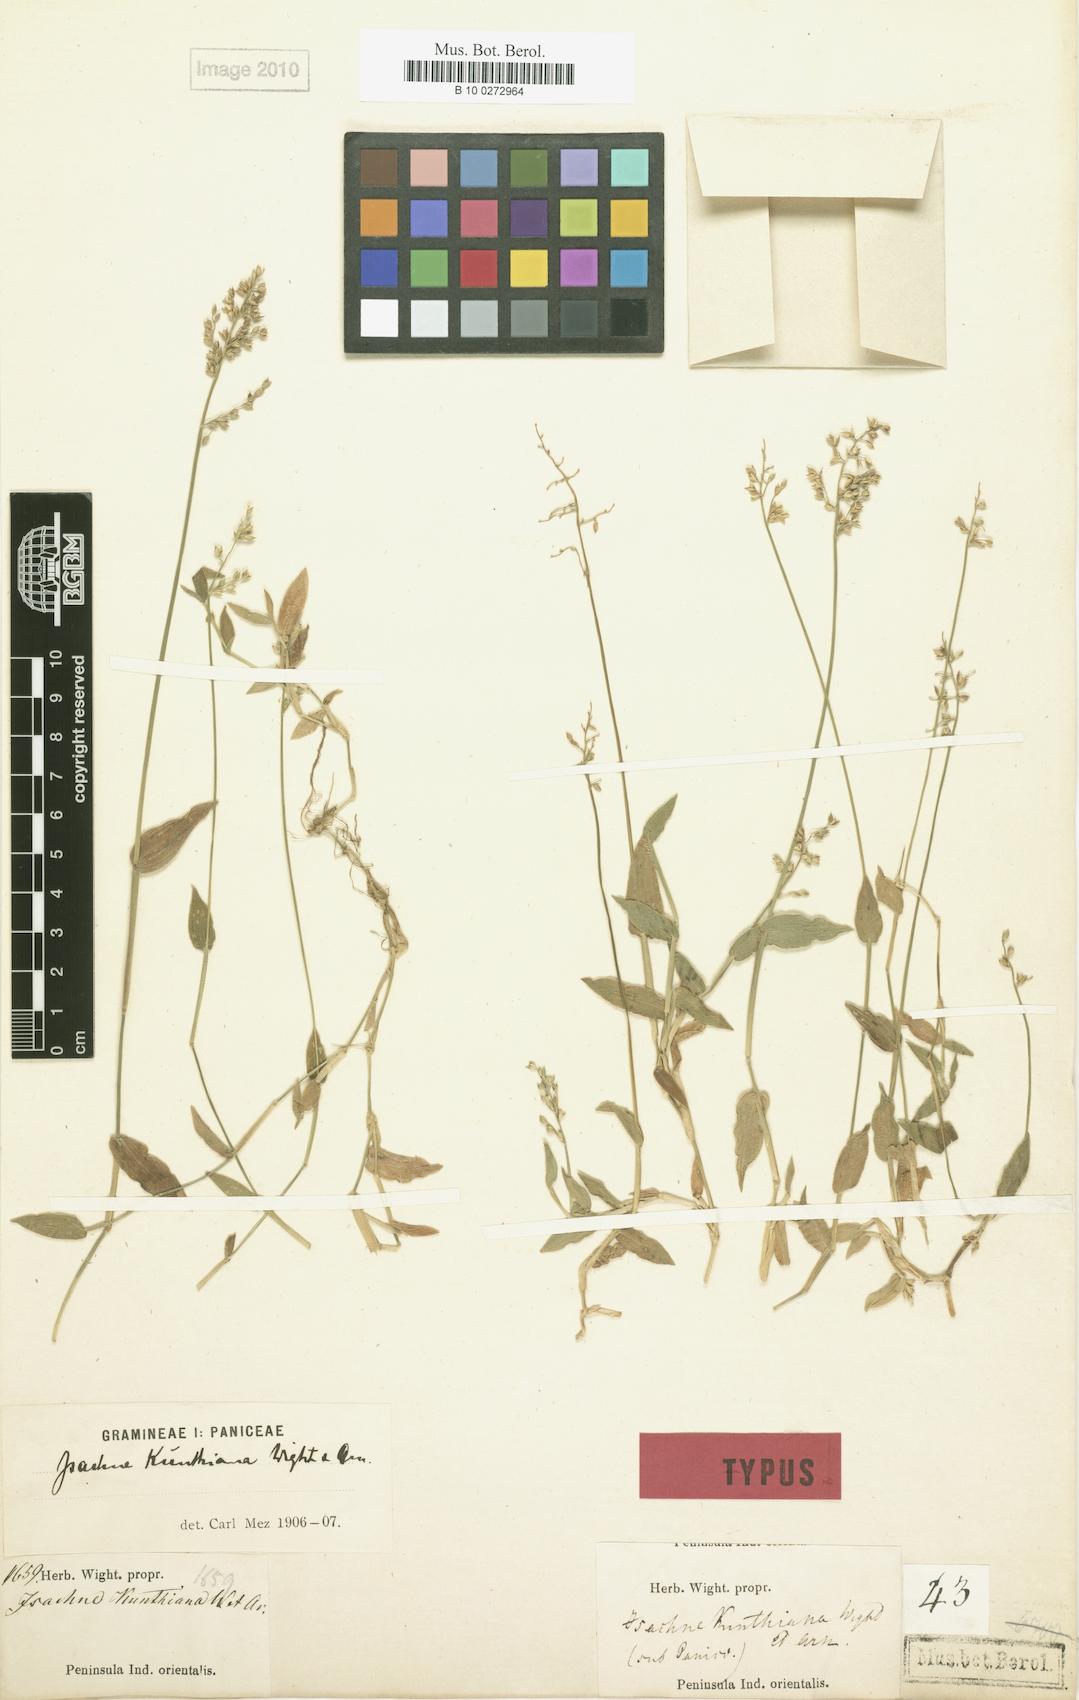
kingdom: Plantae
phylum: Tracheophyta
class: Liliopsida
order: Poales
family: Poaceae
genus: Isachne
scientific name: Isachne kunthiana
